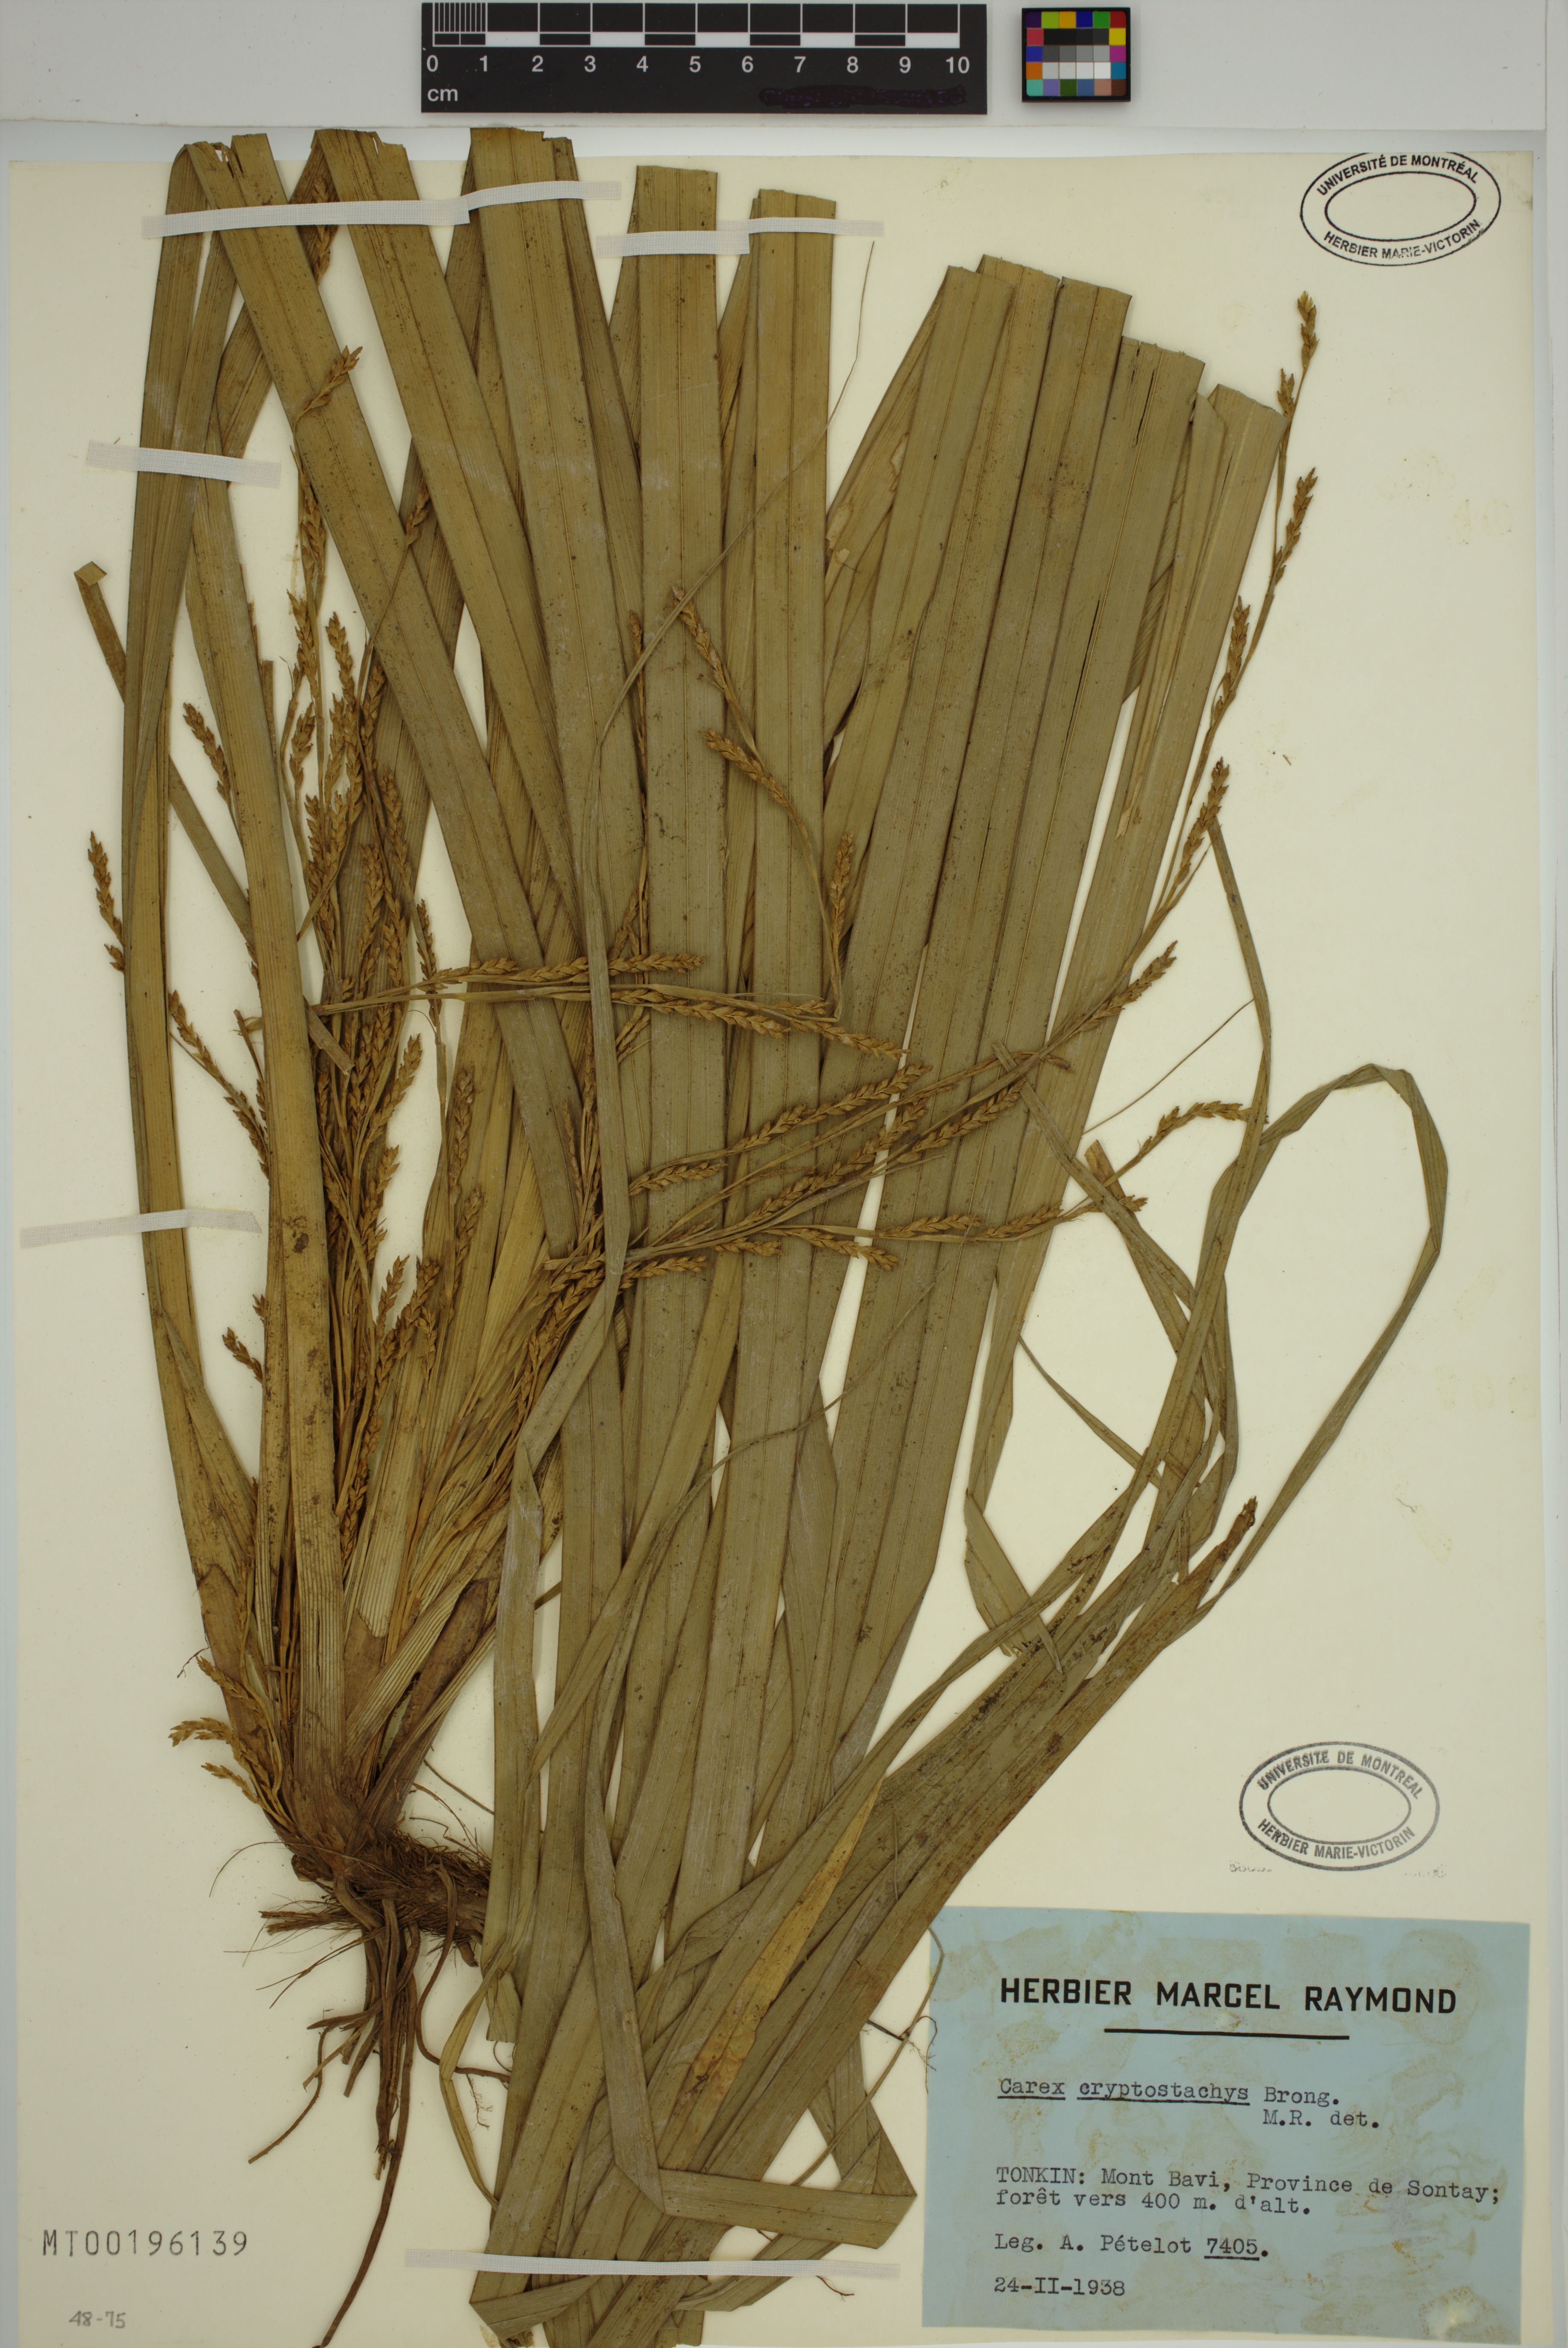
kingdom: Plantae
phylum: Tracheophyta
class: Liliopsida
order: Poales
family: Cyperaceae
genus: Carex
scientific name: Carex cryptostachys
